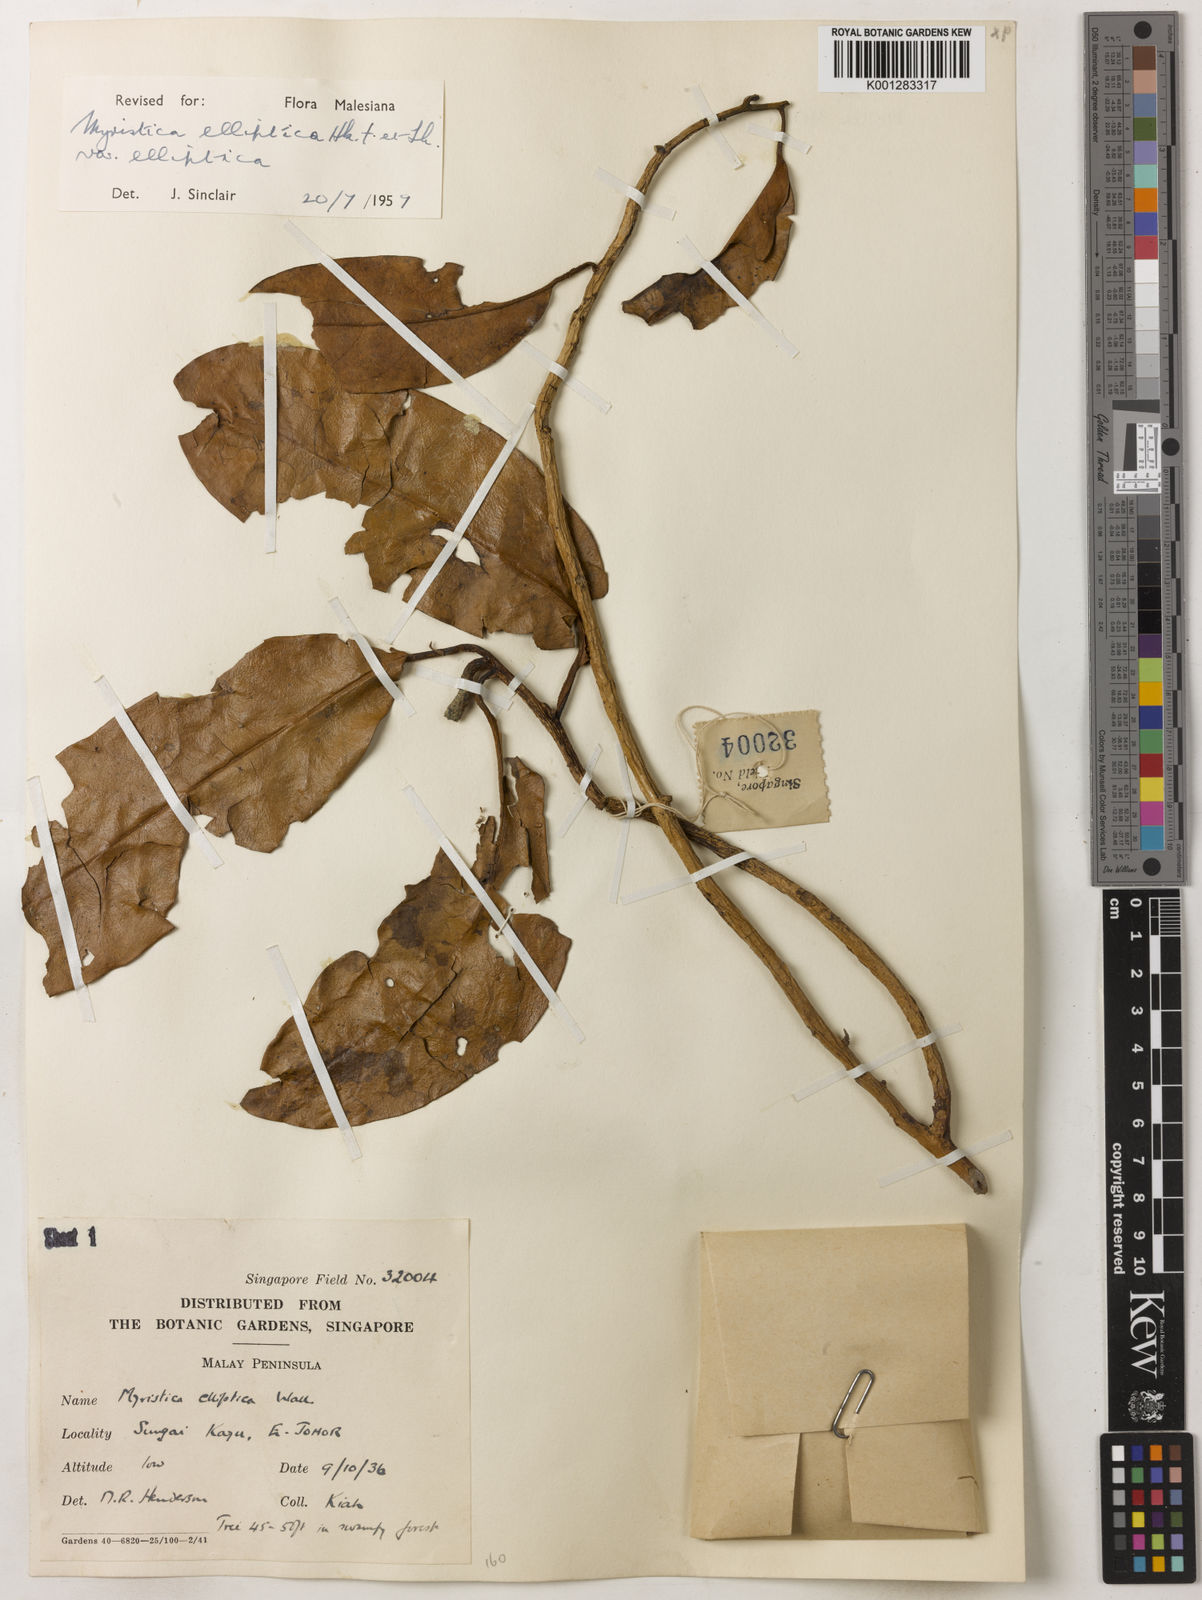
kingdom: Plantae
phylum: Tracheophyta
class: Magnoliopsida
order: Magnoliales
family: Myristicaceae
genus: Myristica
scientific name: Myristica elliptica
